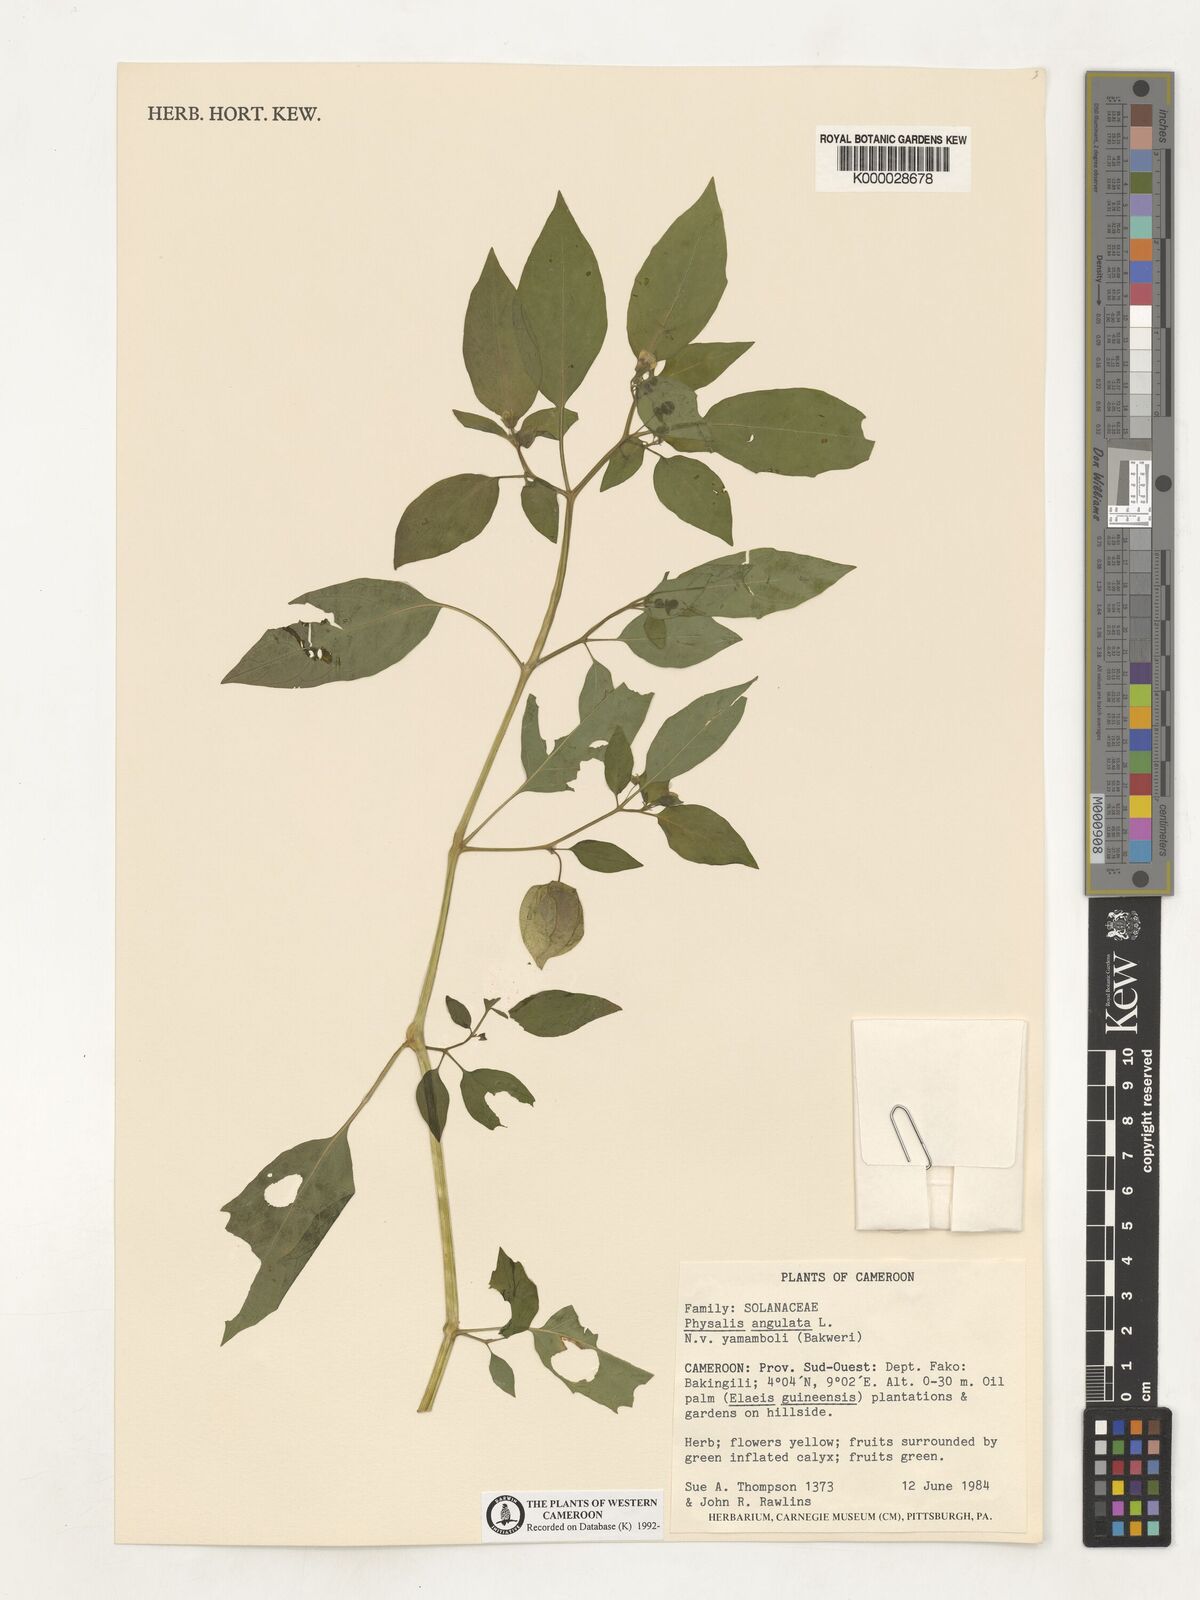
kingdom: Plantae
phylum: Tracheophyta
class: Magnoliopsida
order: Solanales
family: Solanaceae
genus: Physalis
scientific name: Physalis angulata
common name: Angular winter-cherry
